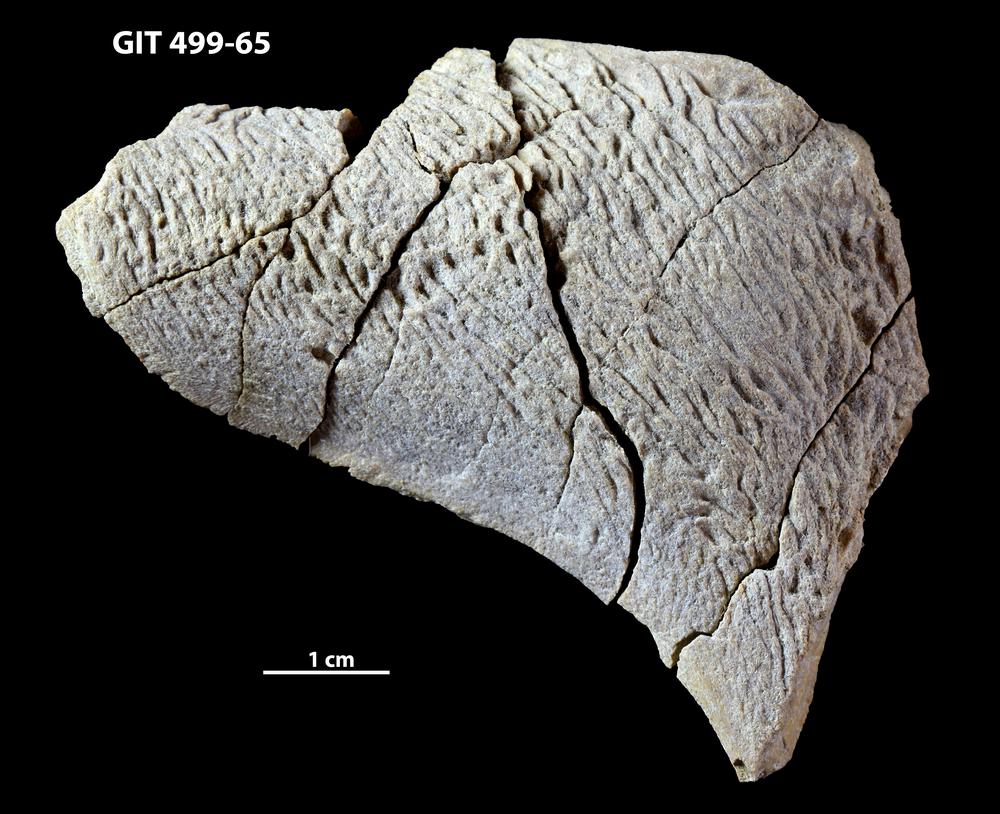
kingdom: Animalia
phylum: Chordata
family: Holoptychiidae
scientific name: Holoptychiidae
